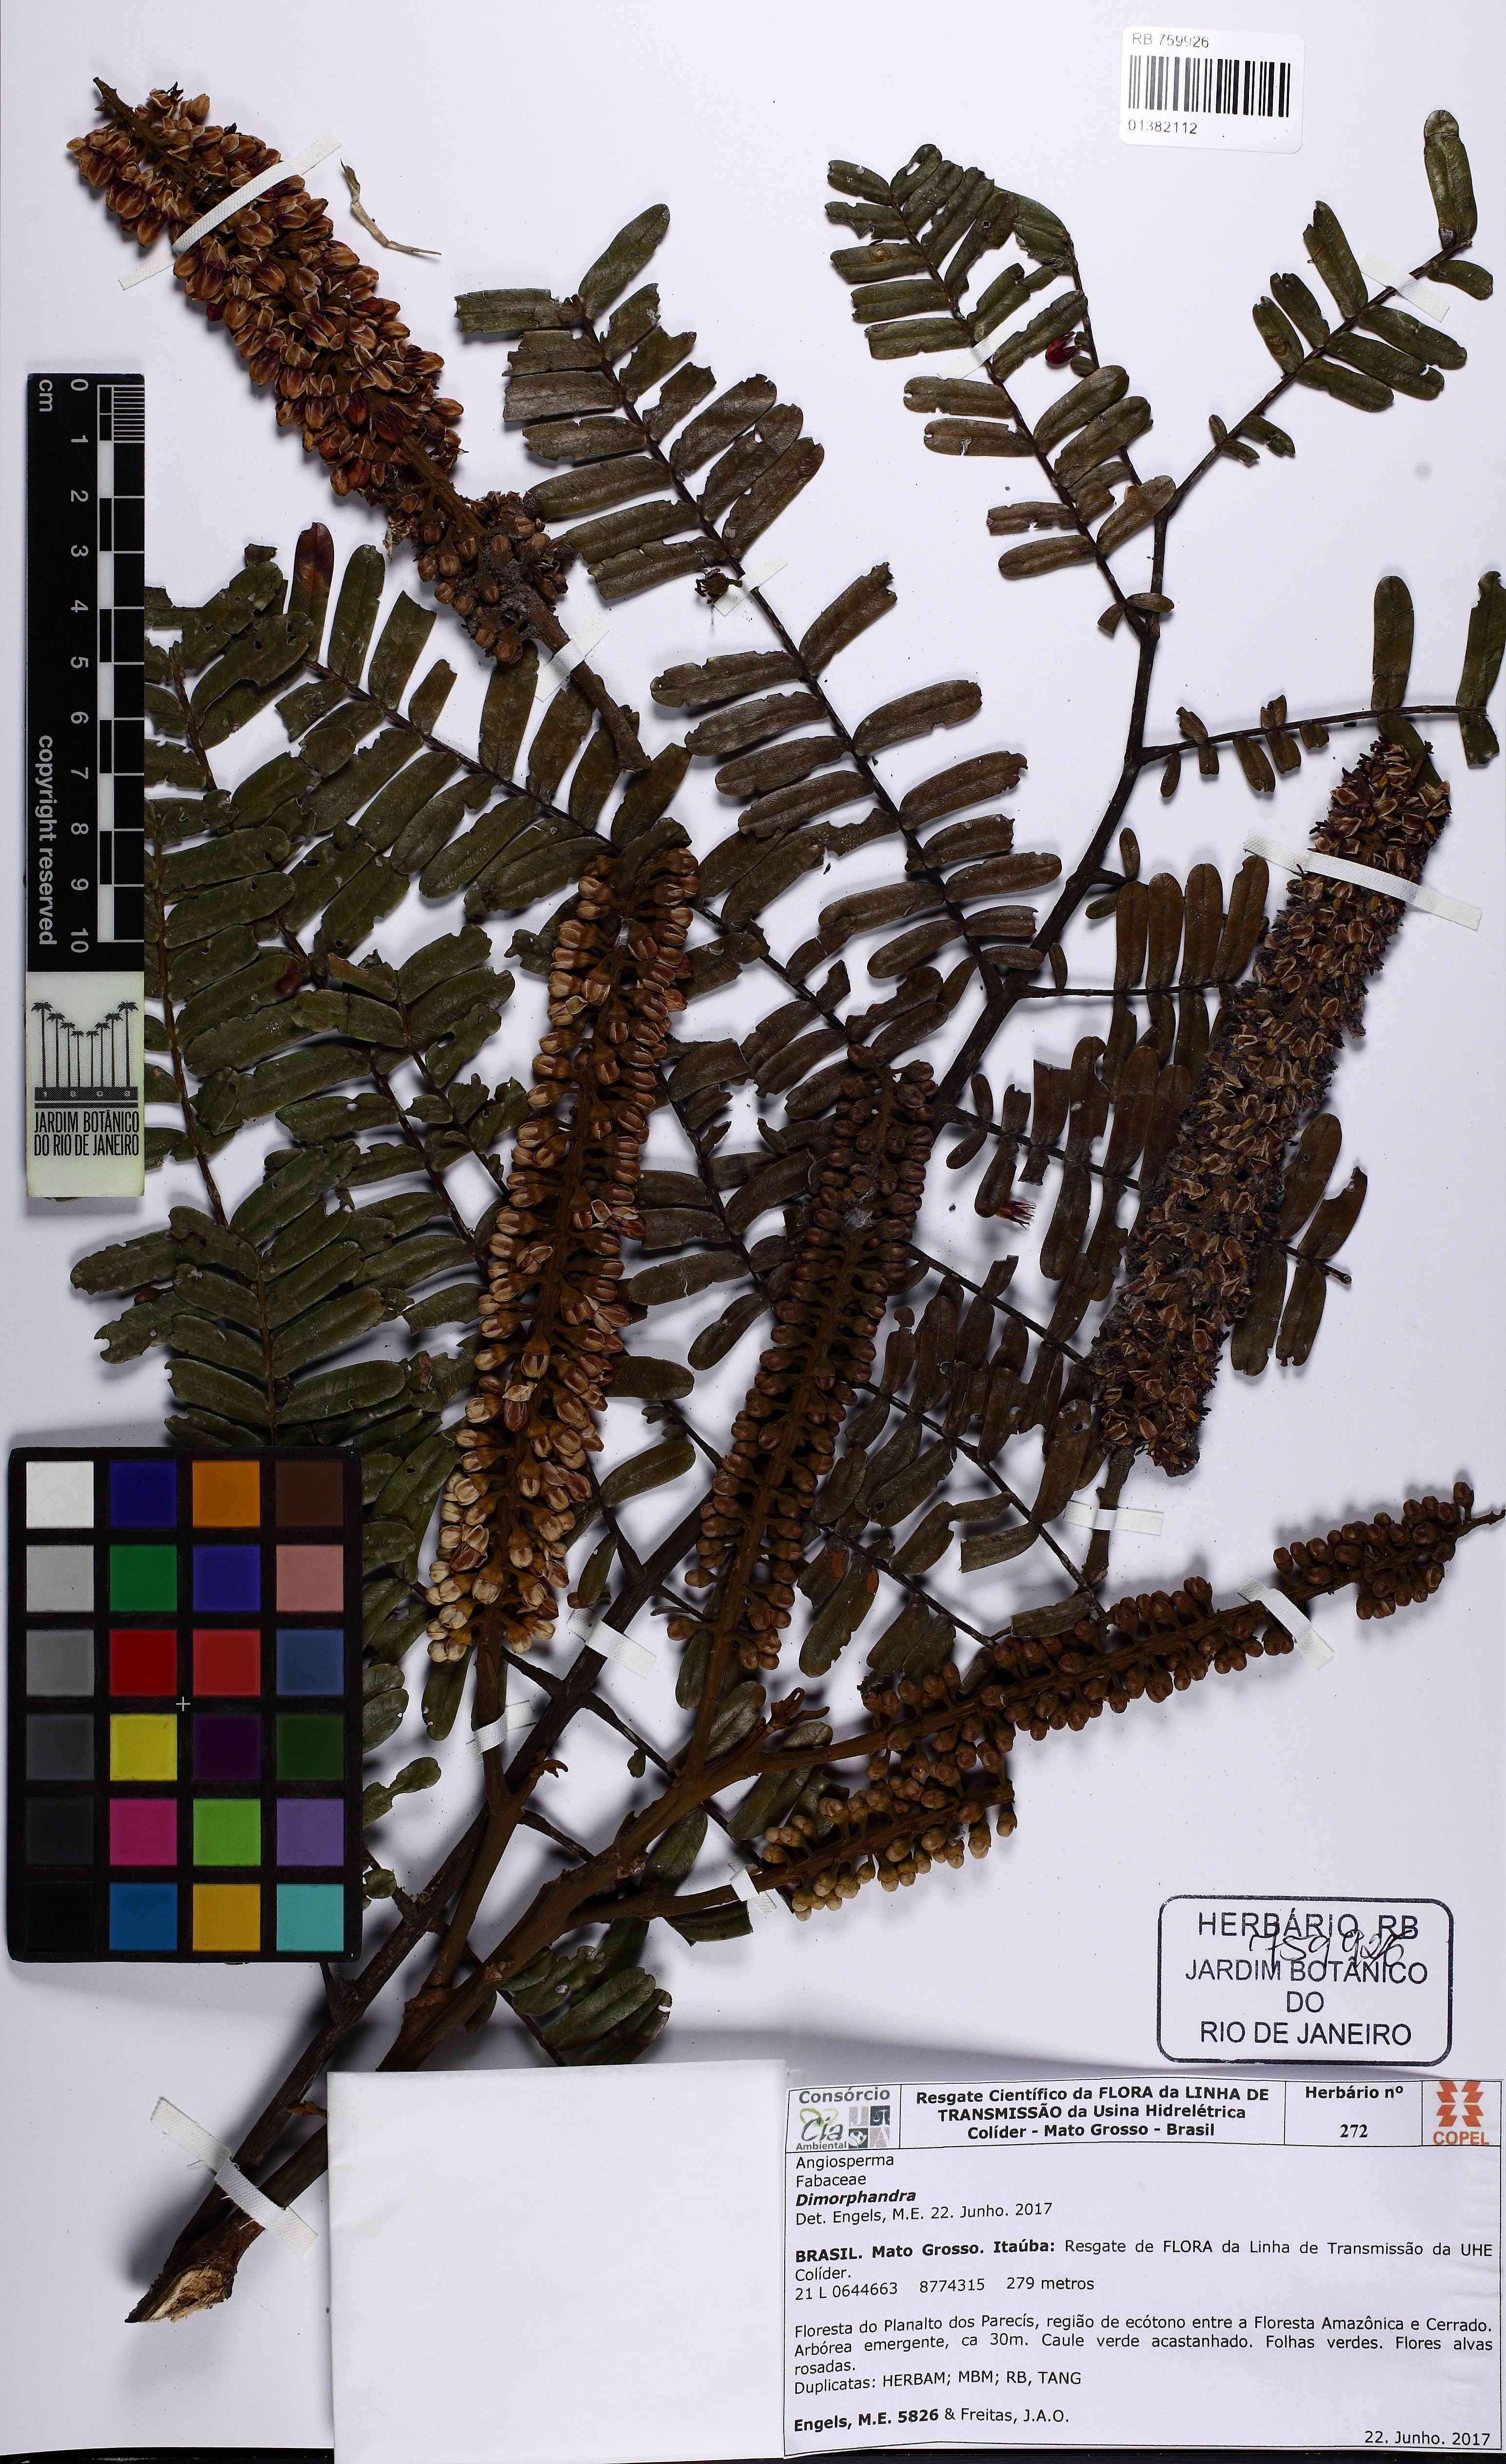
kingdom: Plantae
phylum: Tracheophyta
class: Magnoliopsida
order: Fabales
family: Fabaceae
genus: Dimorphandra
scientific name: Dimorphandra pennigera
